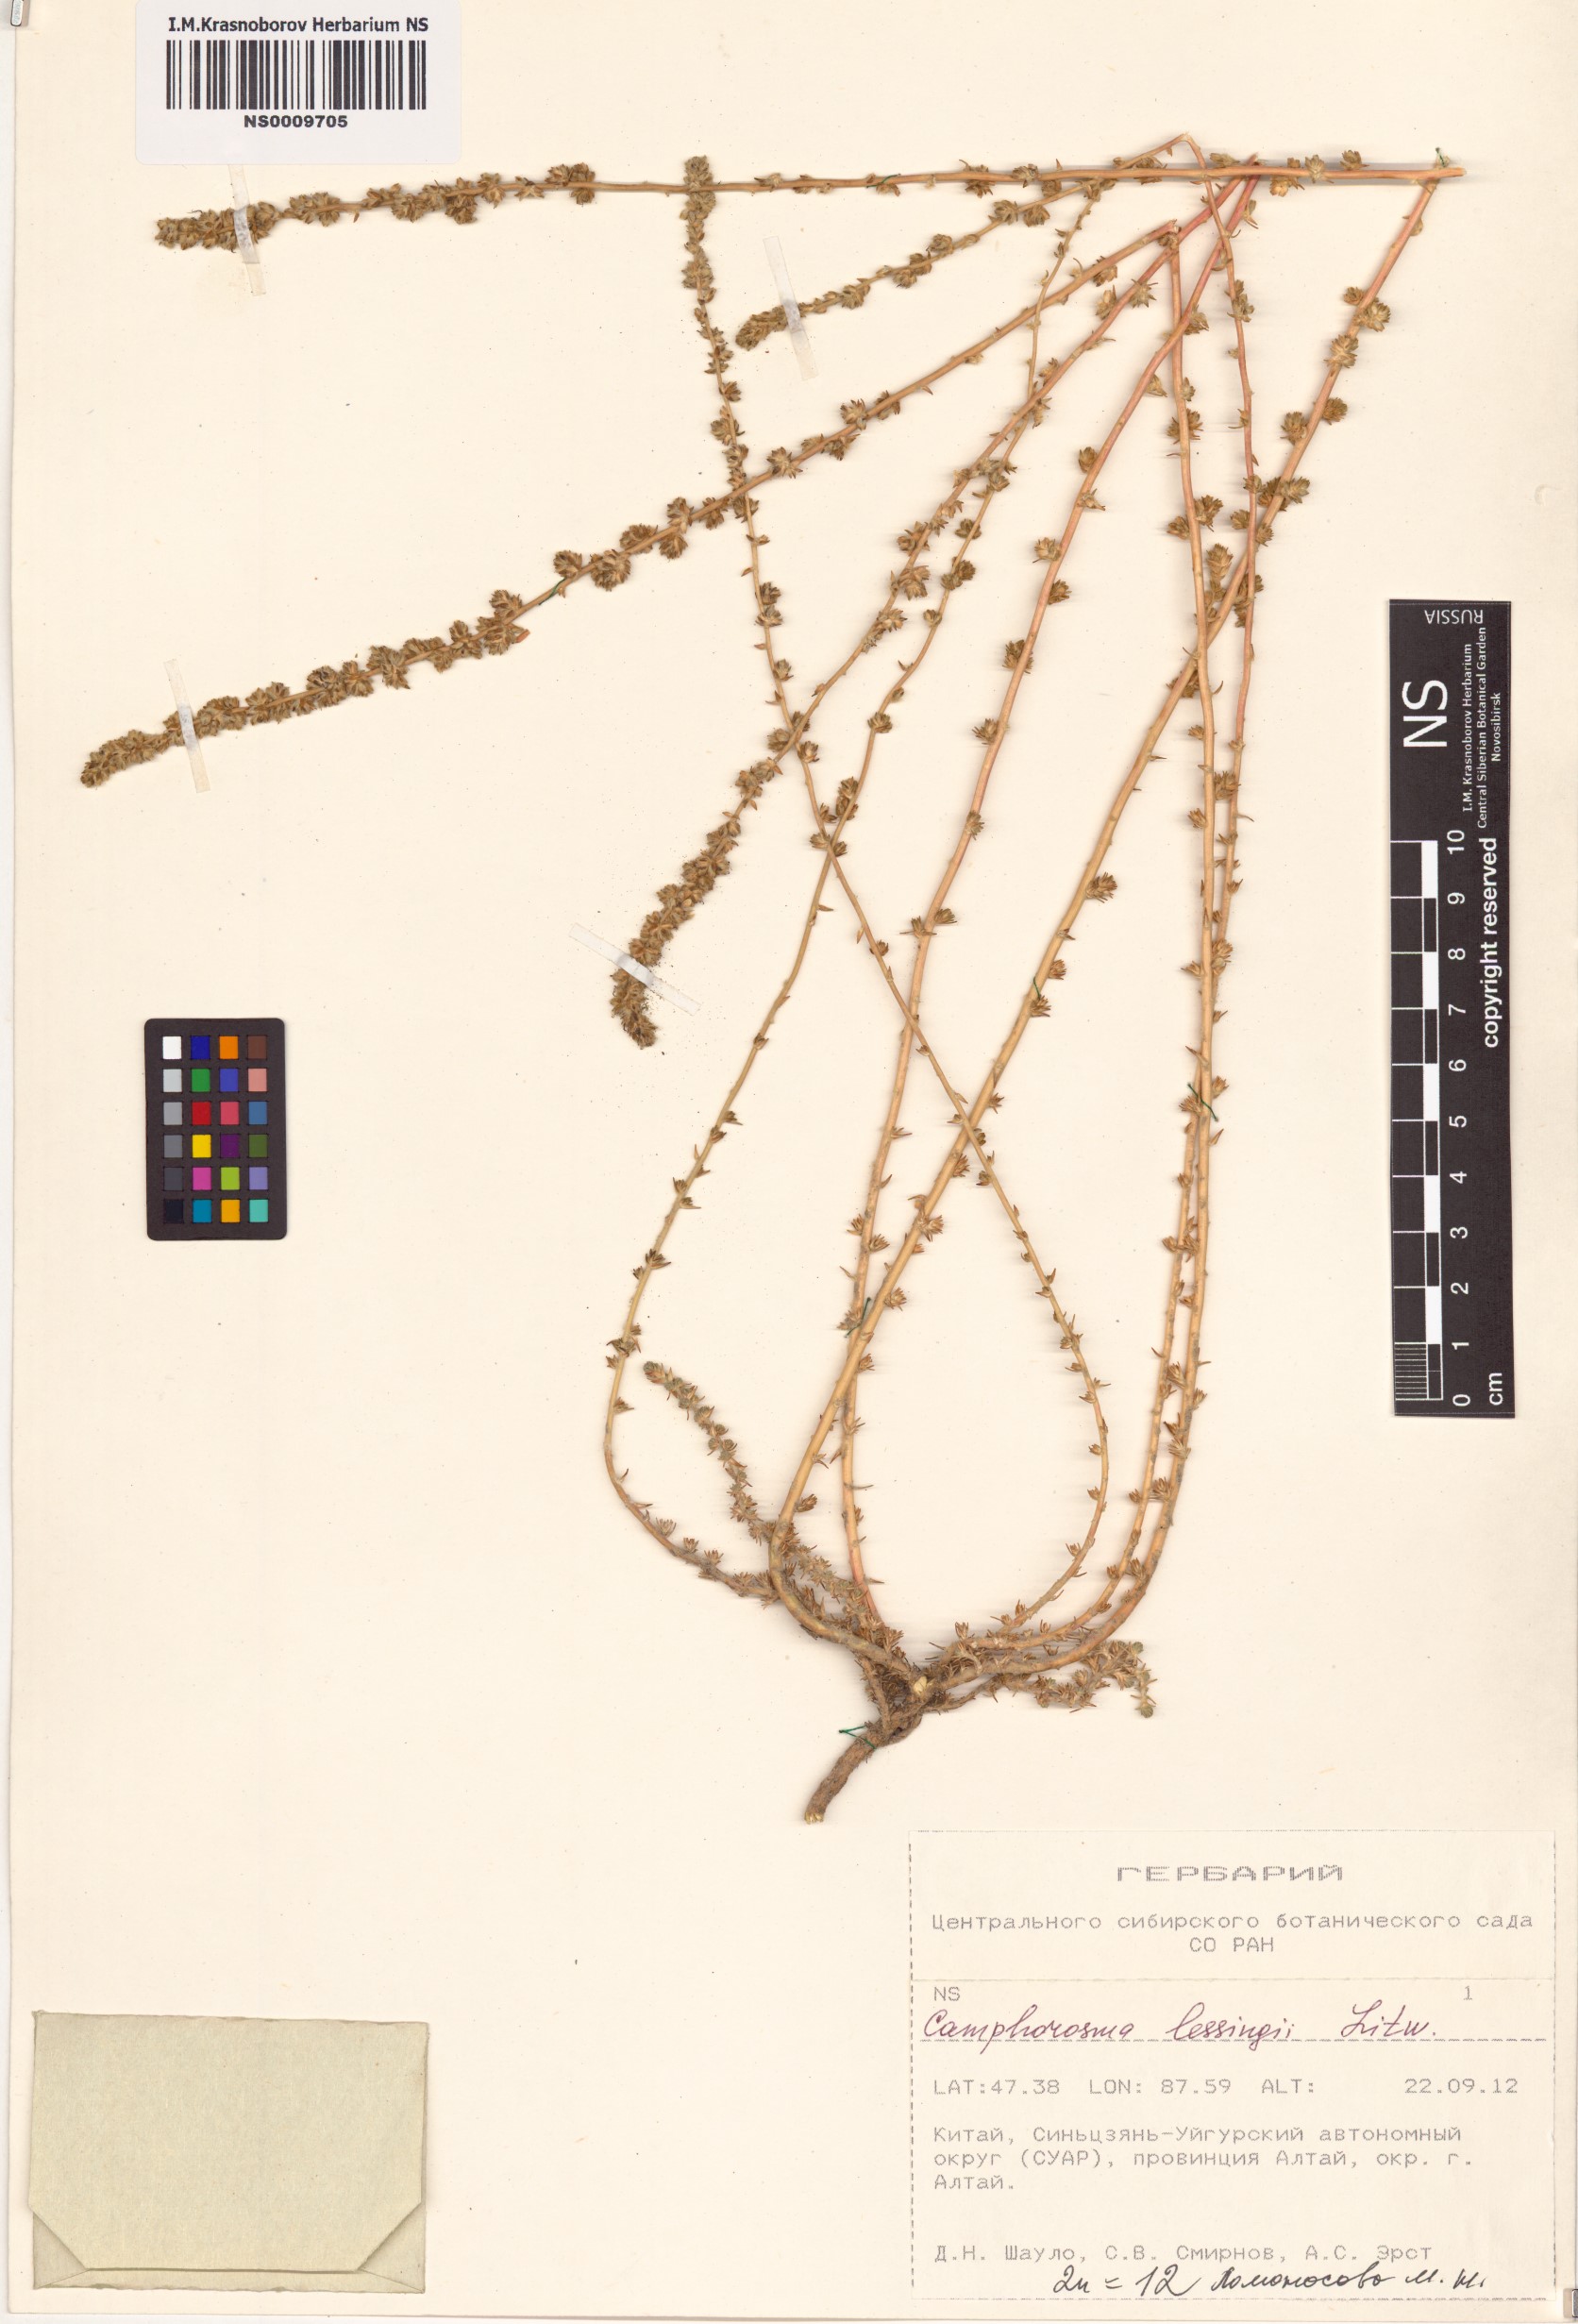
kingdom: Plantae
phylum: Tracheophyta
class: Magnoliopsida
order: Caryophyllales
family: Amaranthaceae
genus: Camphorosma
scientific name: Camphorosma monspeliaca
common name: Camphorfume
